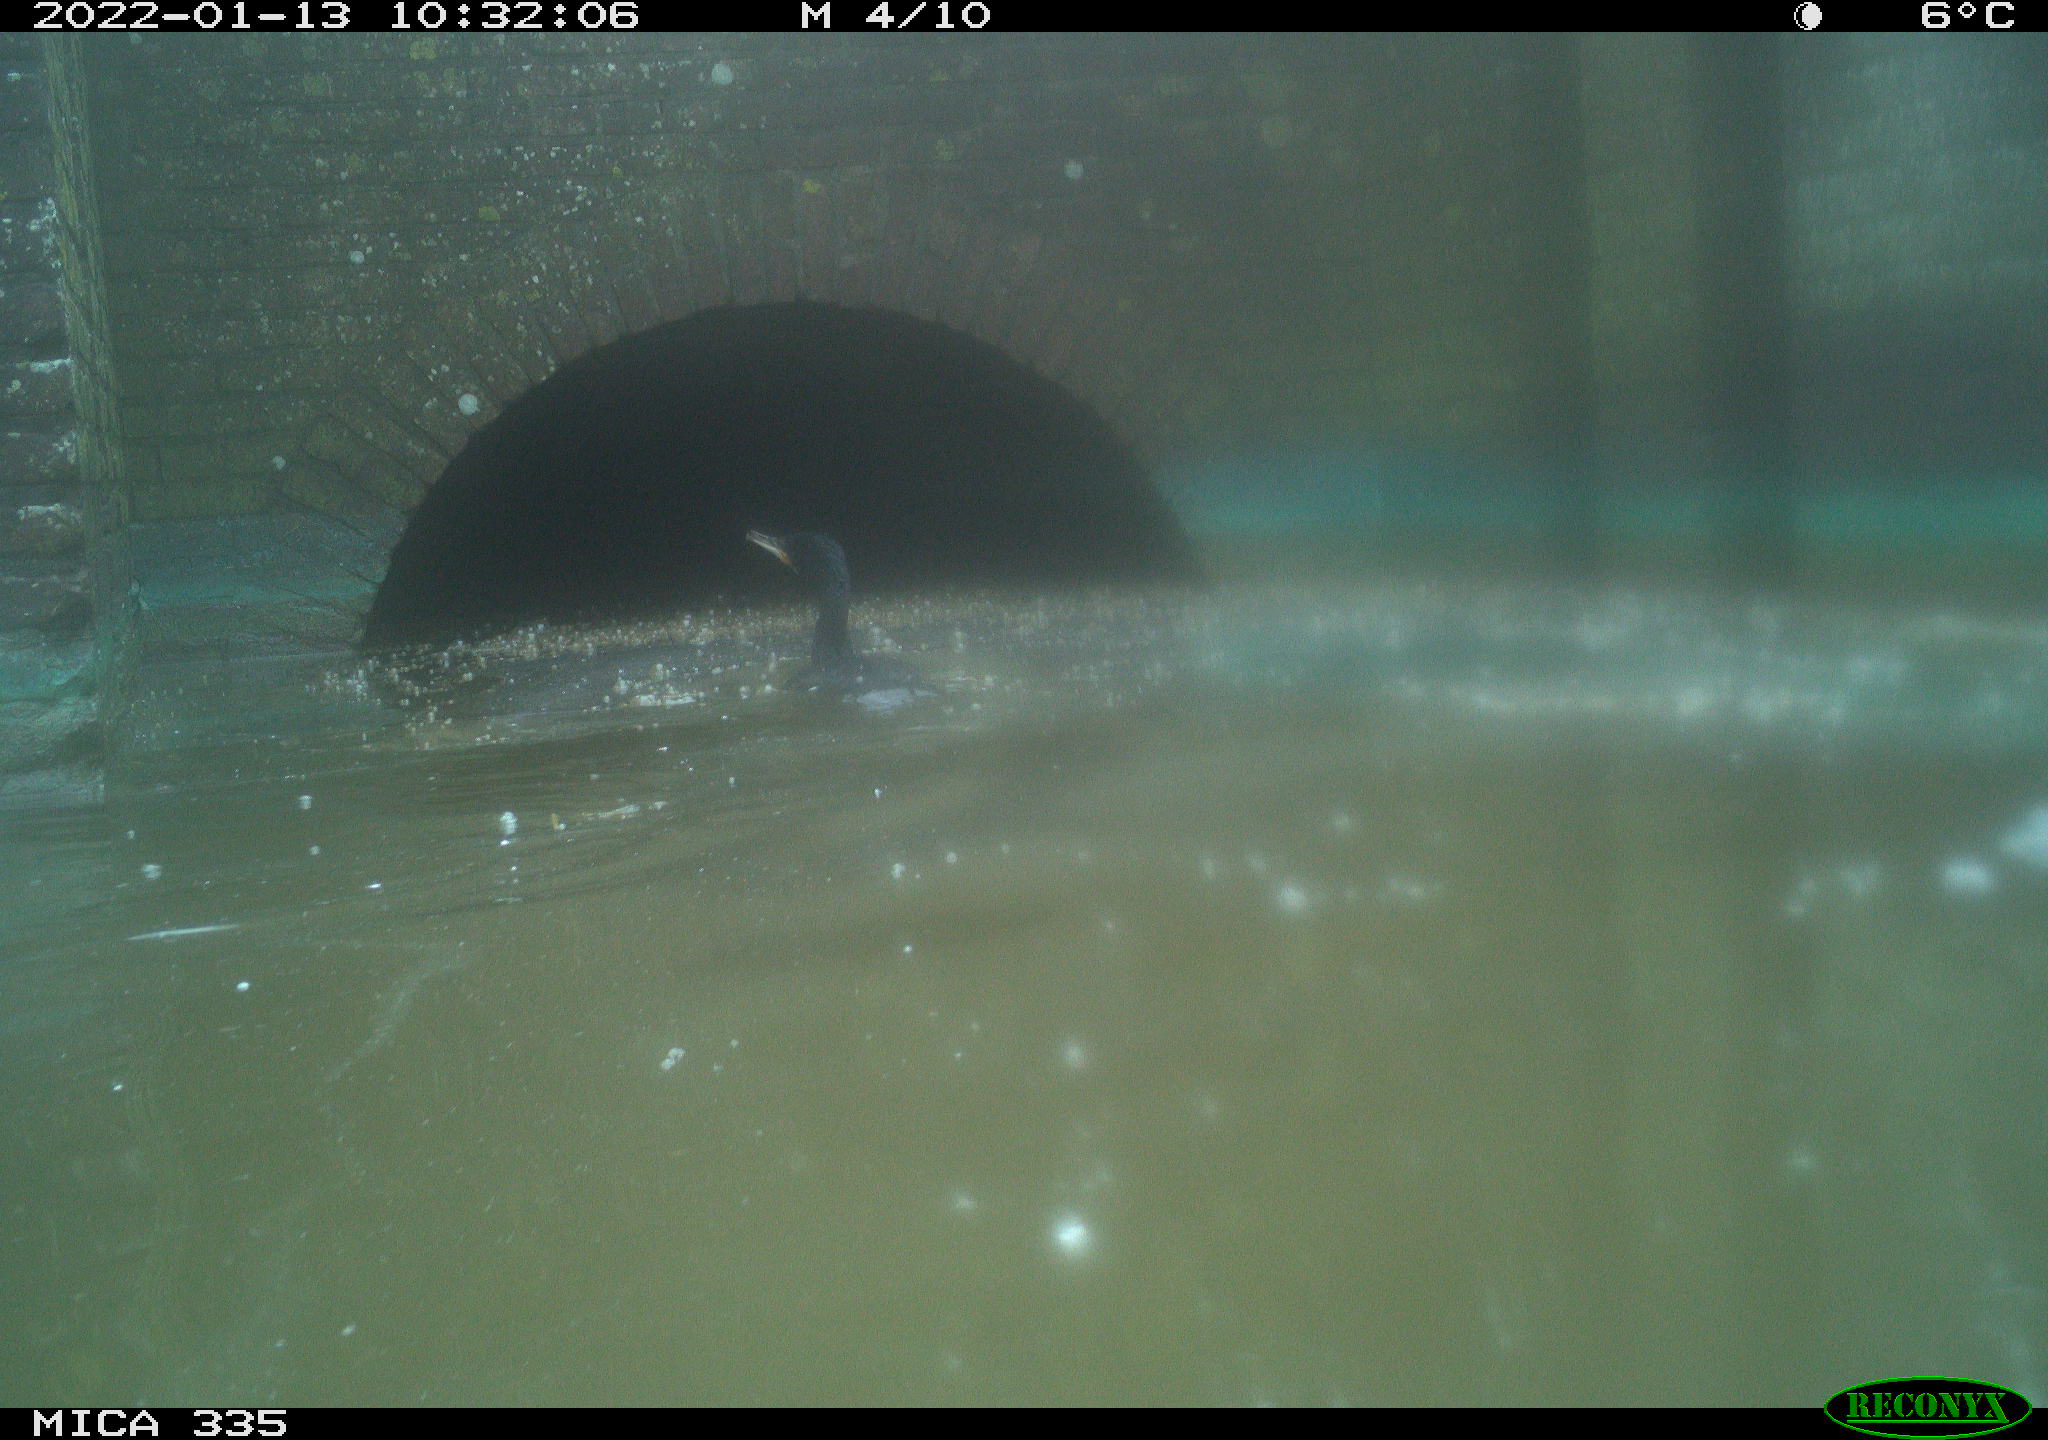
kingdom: Animalia
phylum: Chordata
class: Aves
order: Suliformes
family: Phalacrocoracidae
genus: Phalacrocorax
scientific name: Phalacrocorax carbo
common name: Great cormorant
